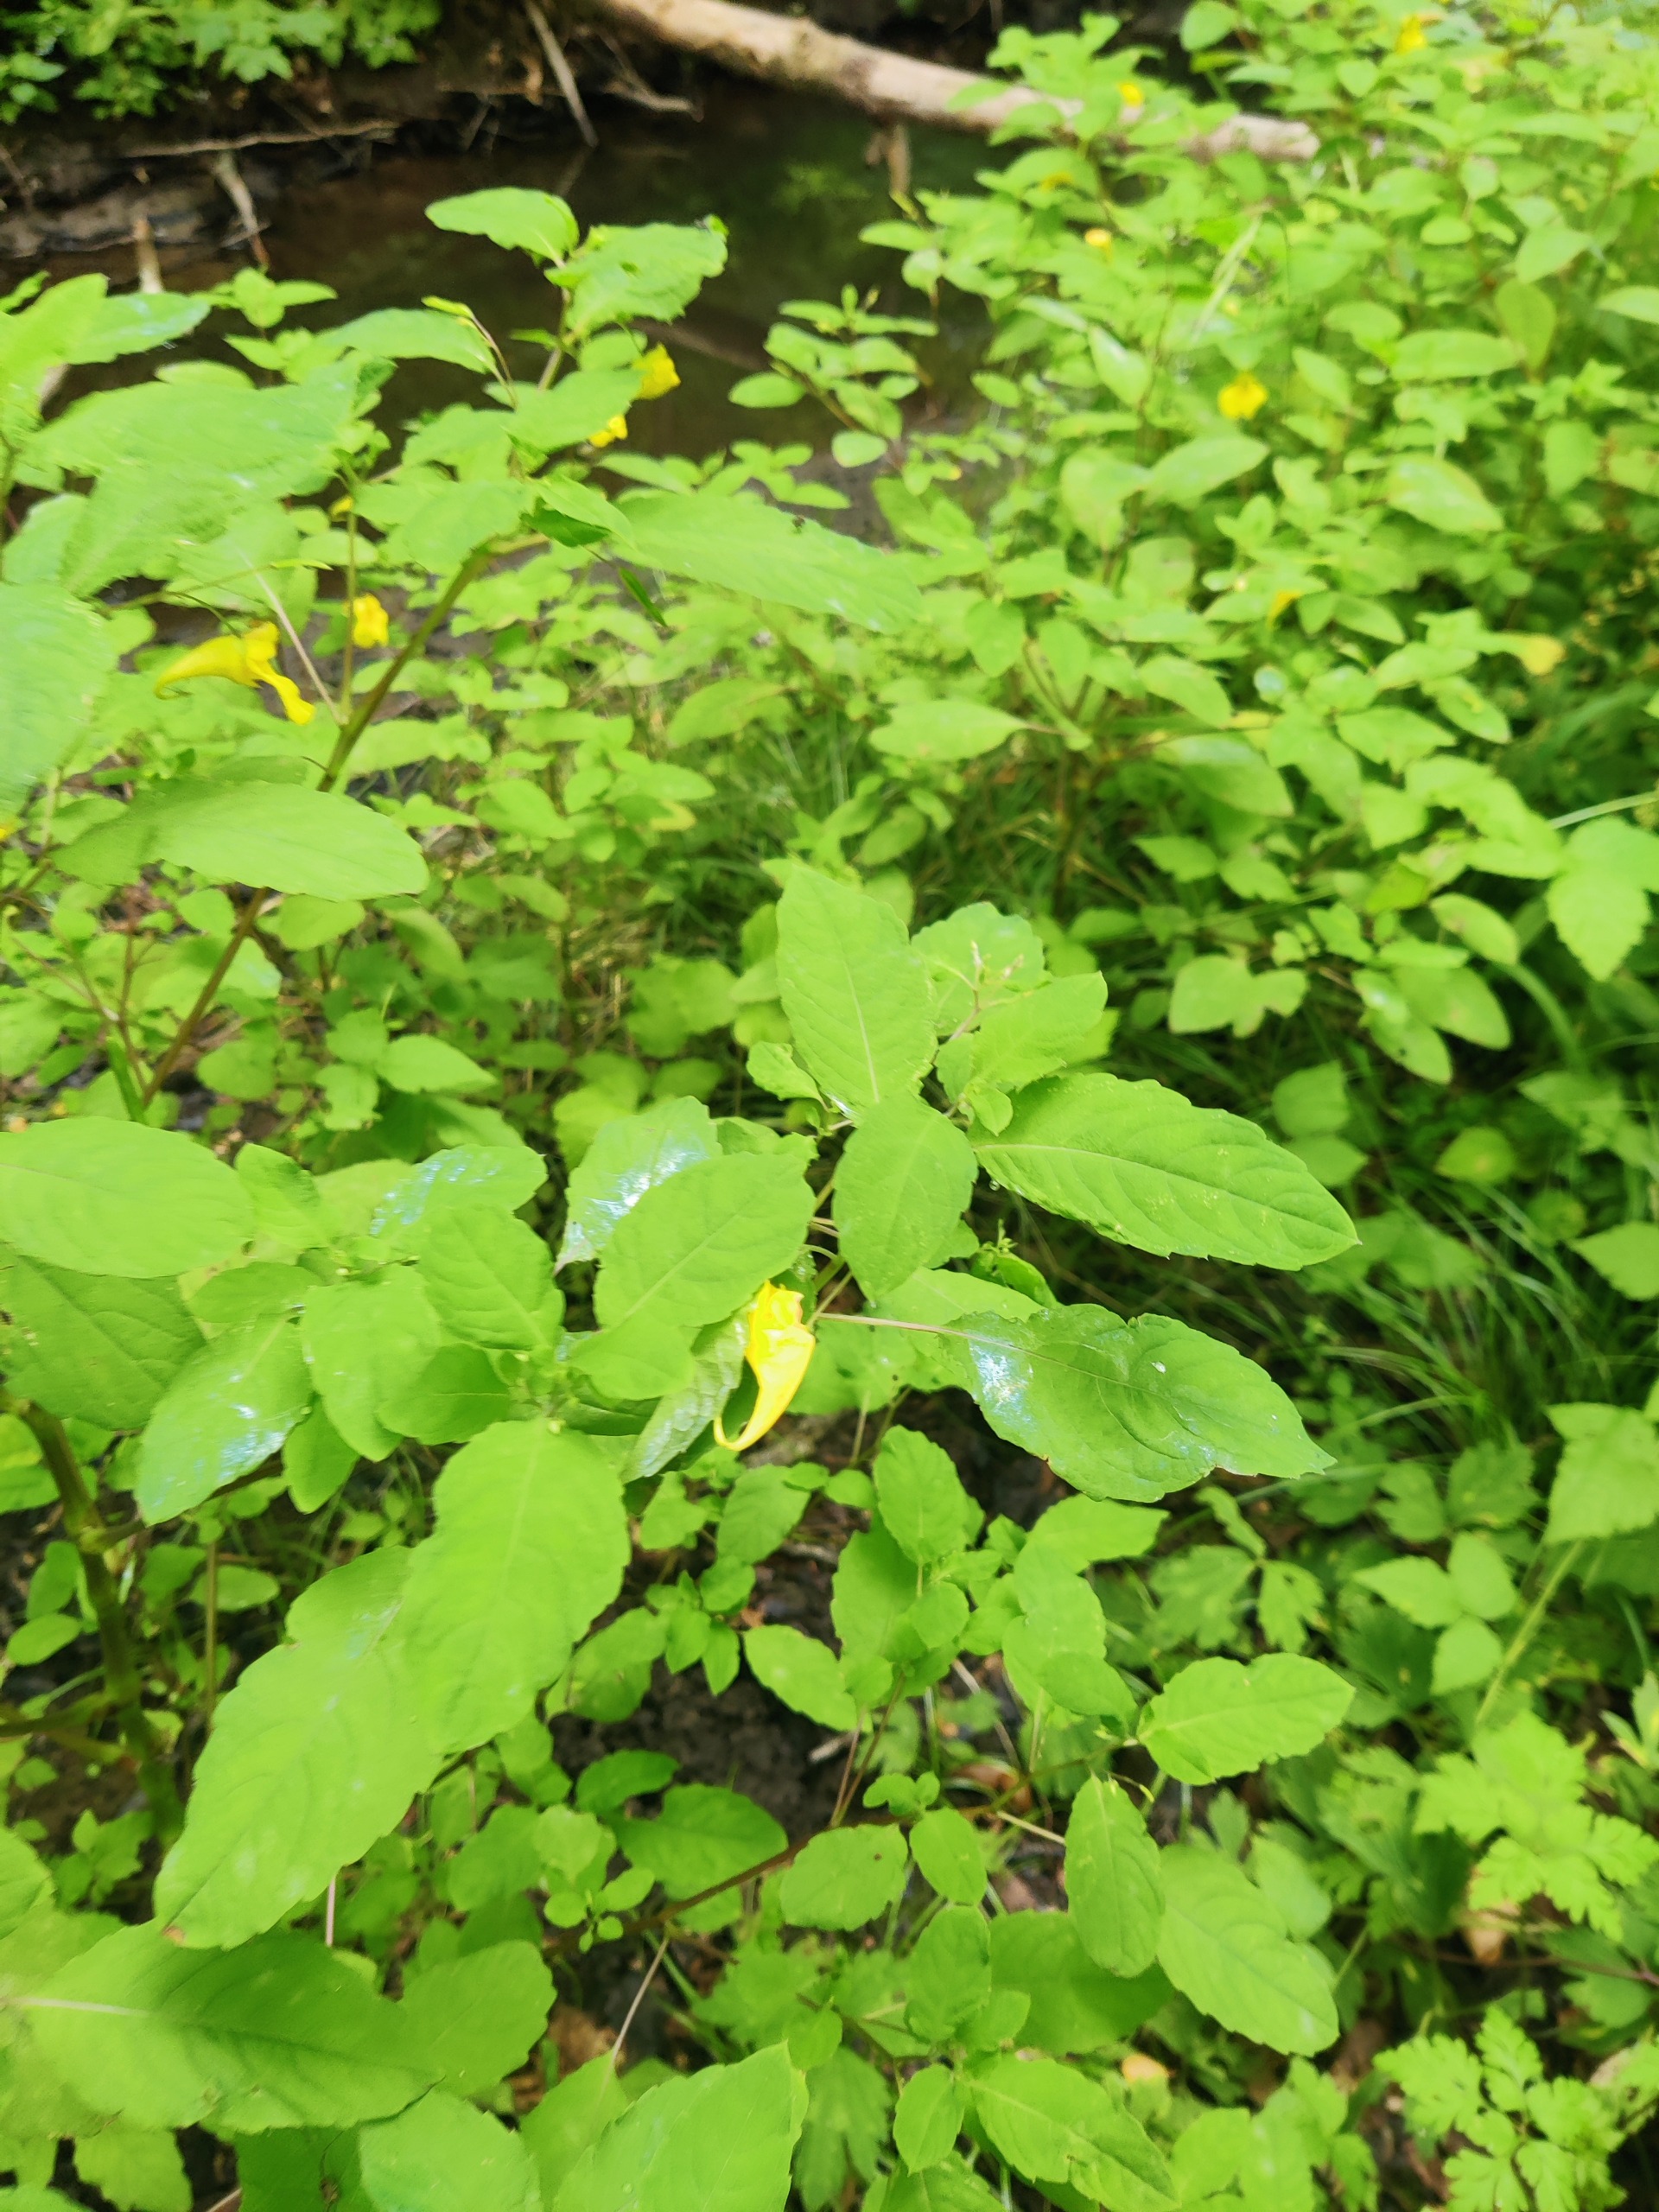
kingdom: Plantae
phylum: Tracheophyta
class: Magnoliopsida
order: Ericales
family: Balsaminaceae
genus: Impatiens
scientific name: Impatiens noli-tangere
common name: Spring-balsamin
